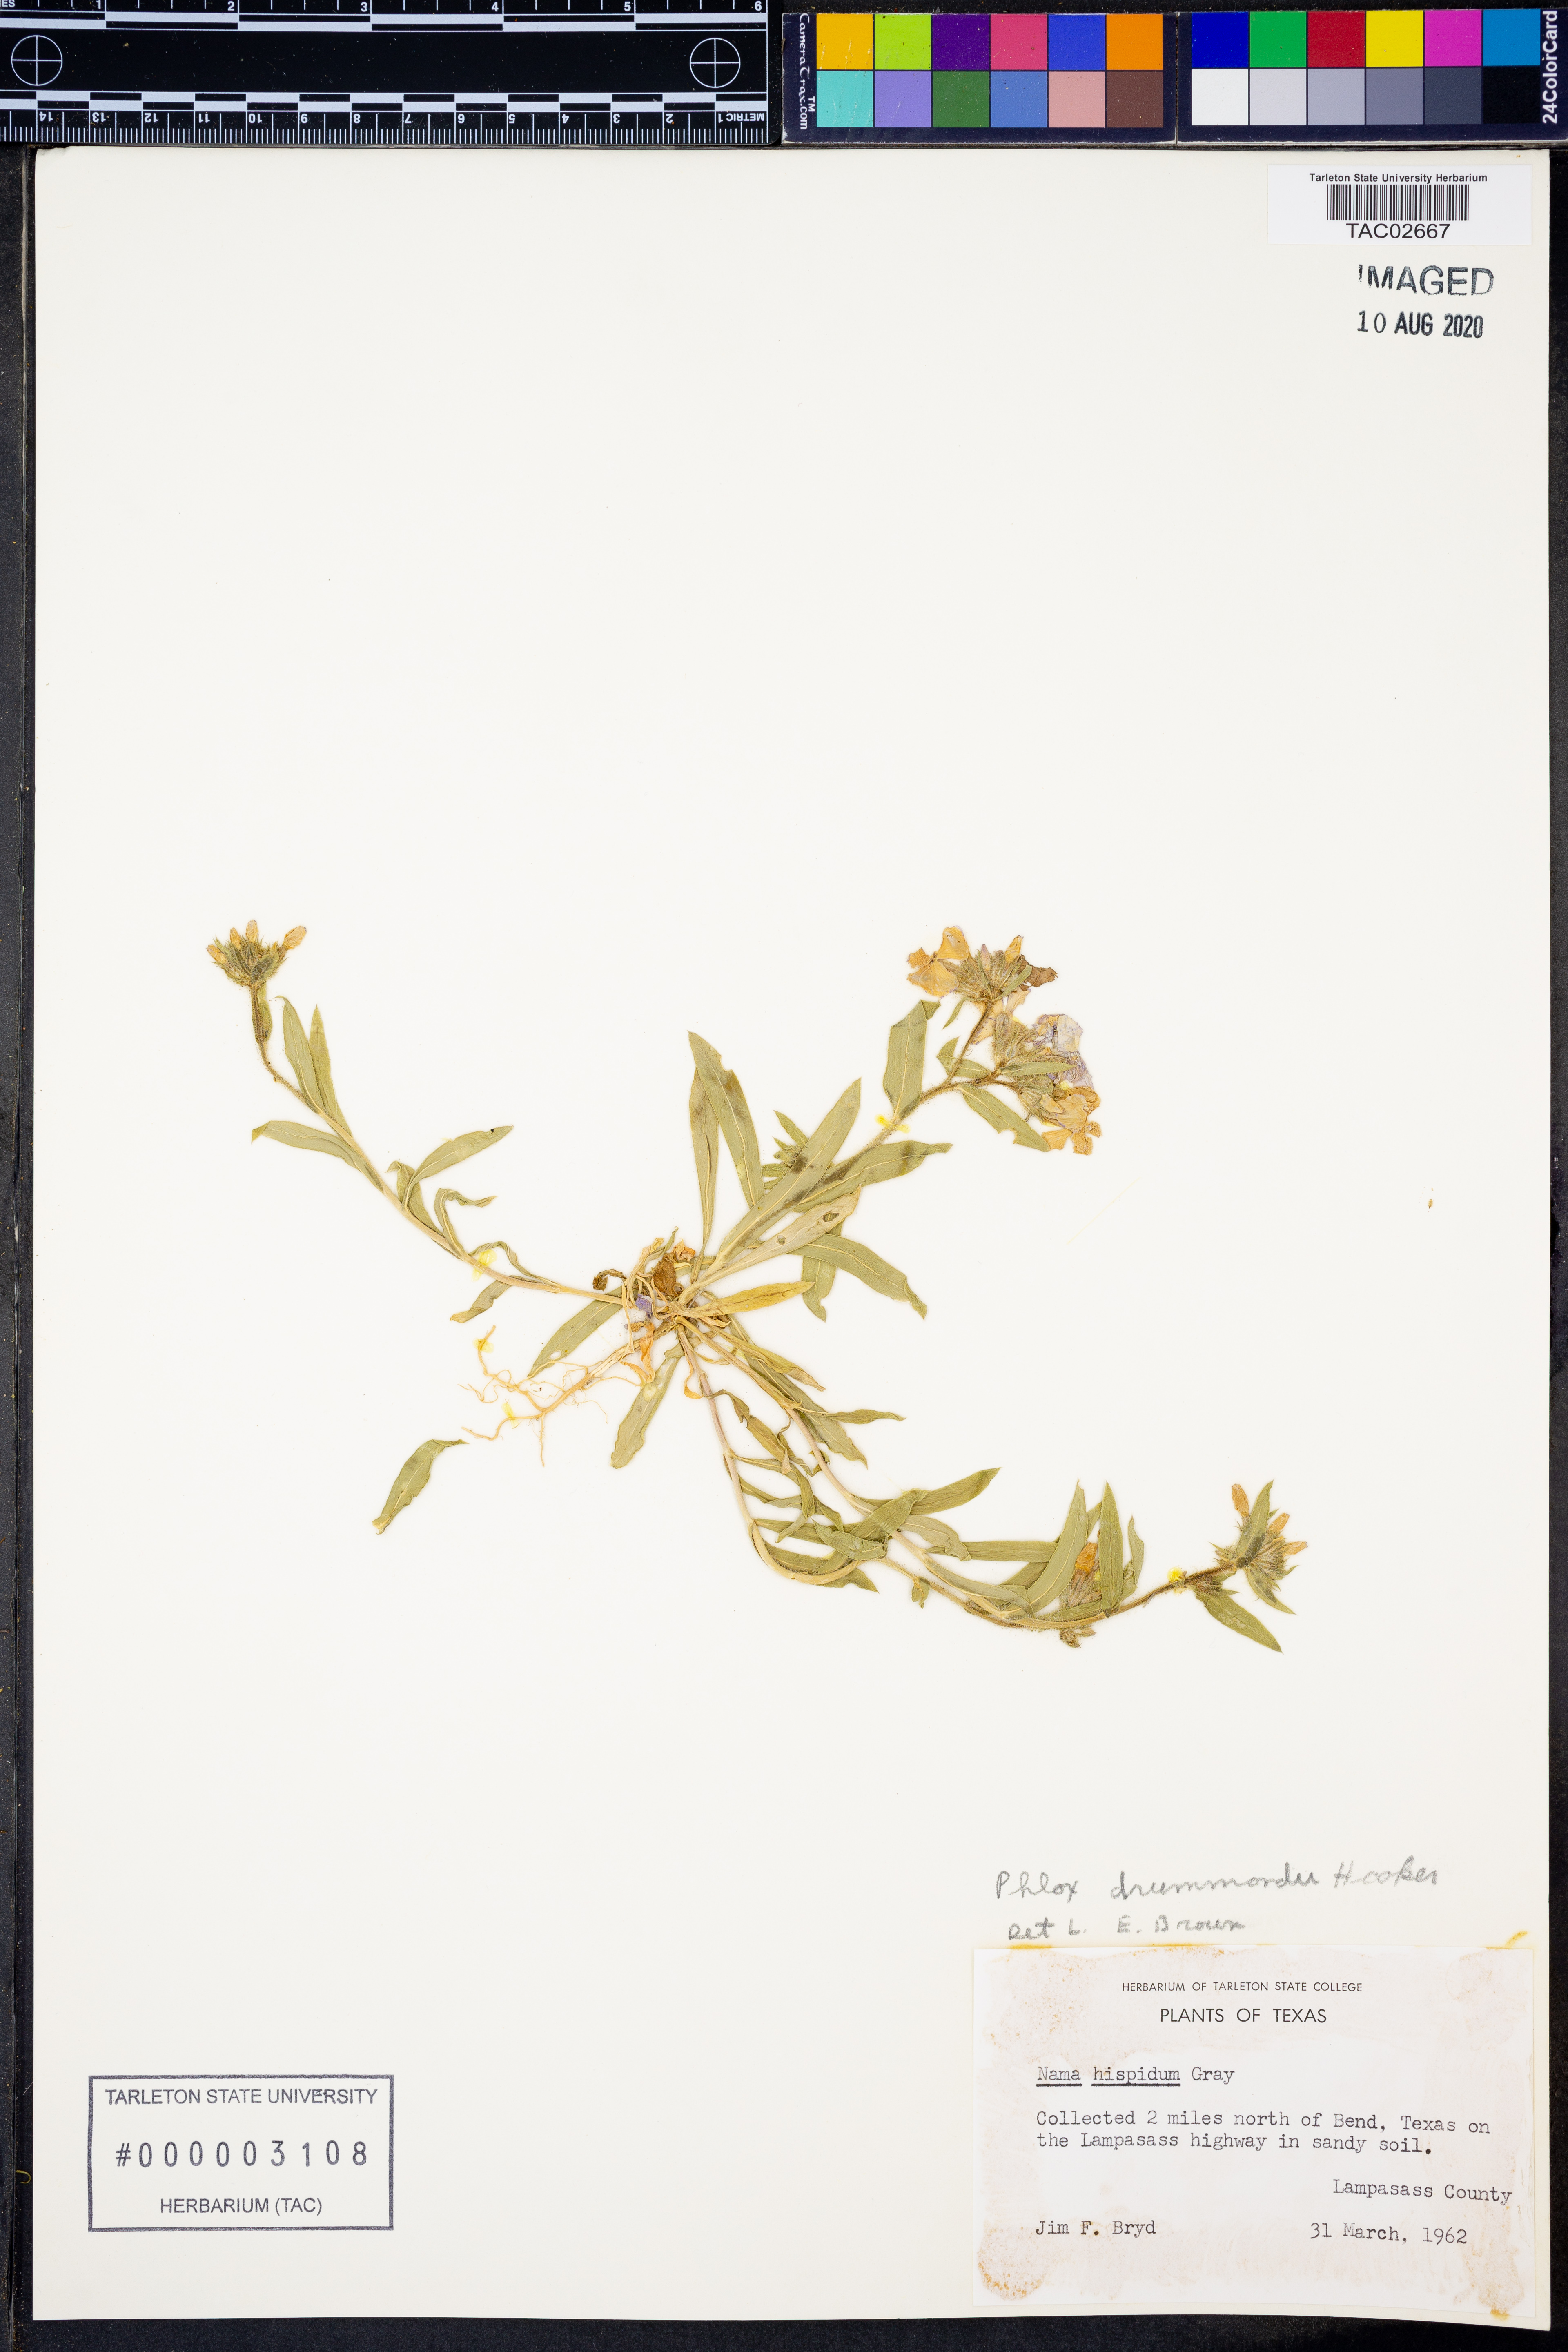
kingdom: Plantae
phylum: Tracheophyta
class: Magnoliopsida
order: Ericales
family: Polemoniaceae
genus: Phlox
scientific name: Phlox drummondii
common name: Drummond's phlox
